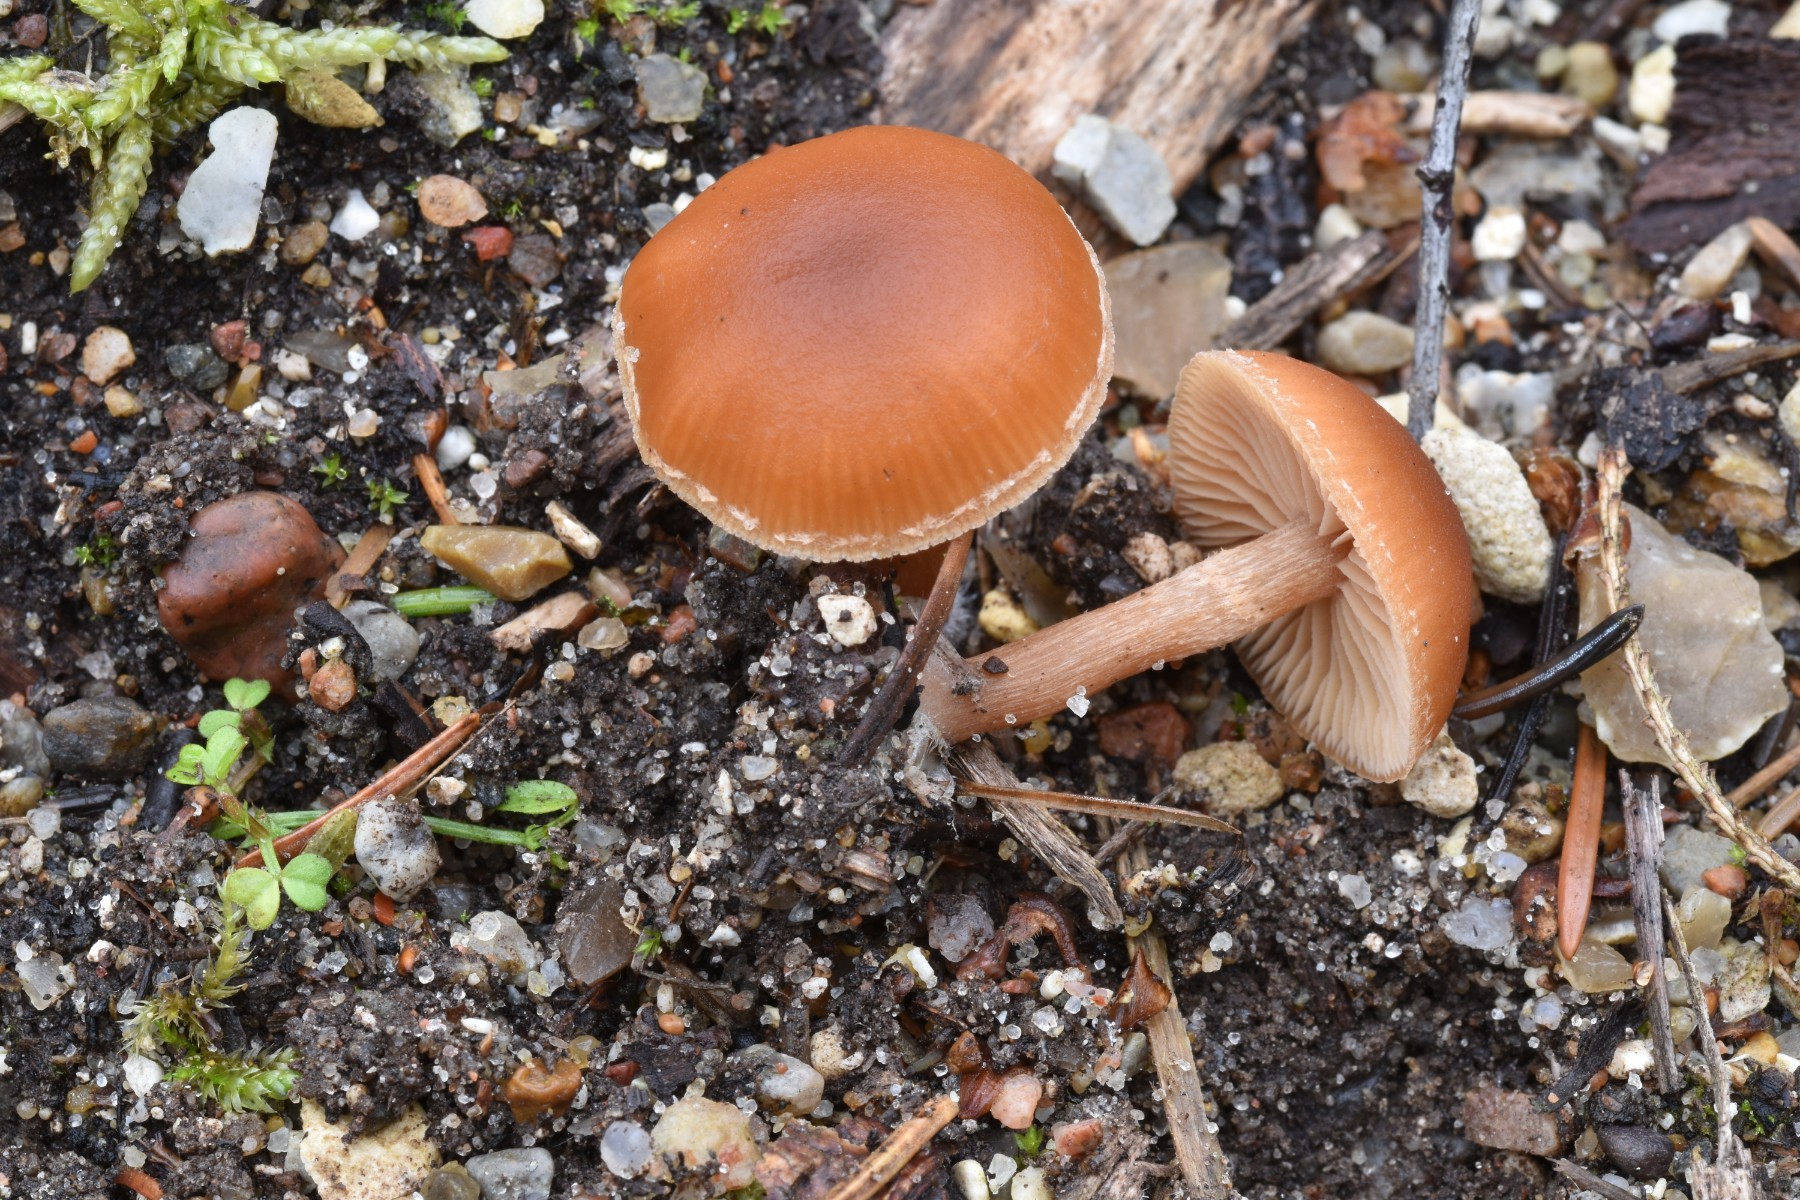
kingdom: Fungi
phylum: Basidiomycota
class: Agaricomycetes
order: Agaricales
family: Tubariaceae
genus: Tubaria
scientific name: Tubaria furfuracea
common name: kliddet fnughat
